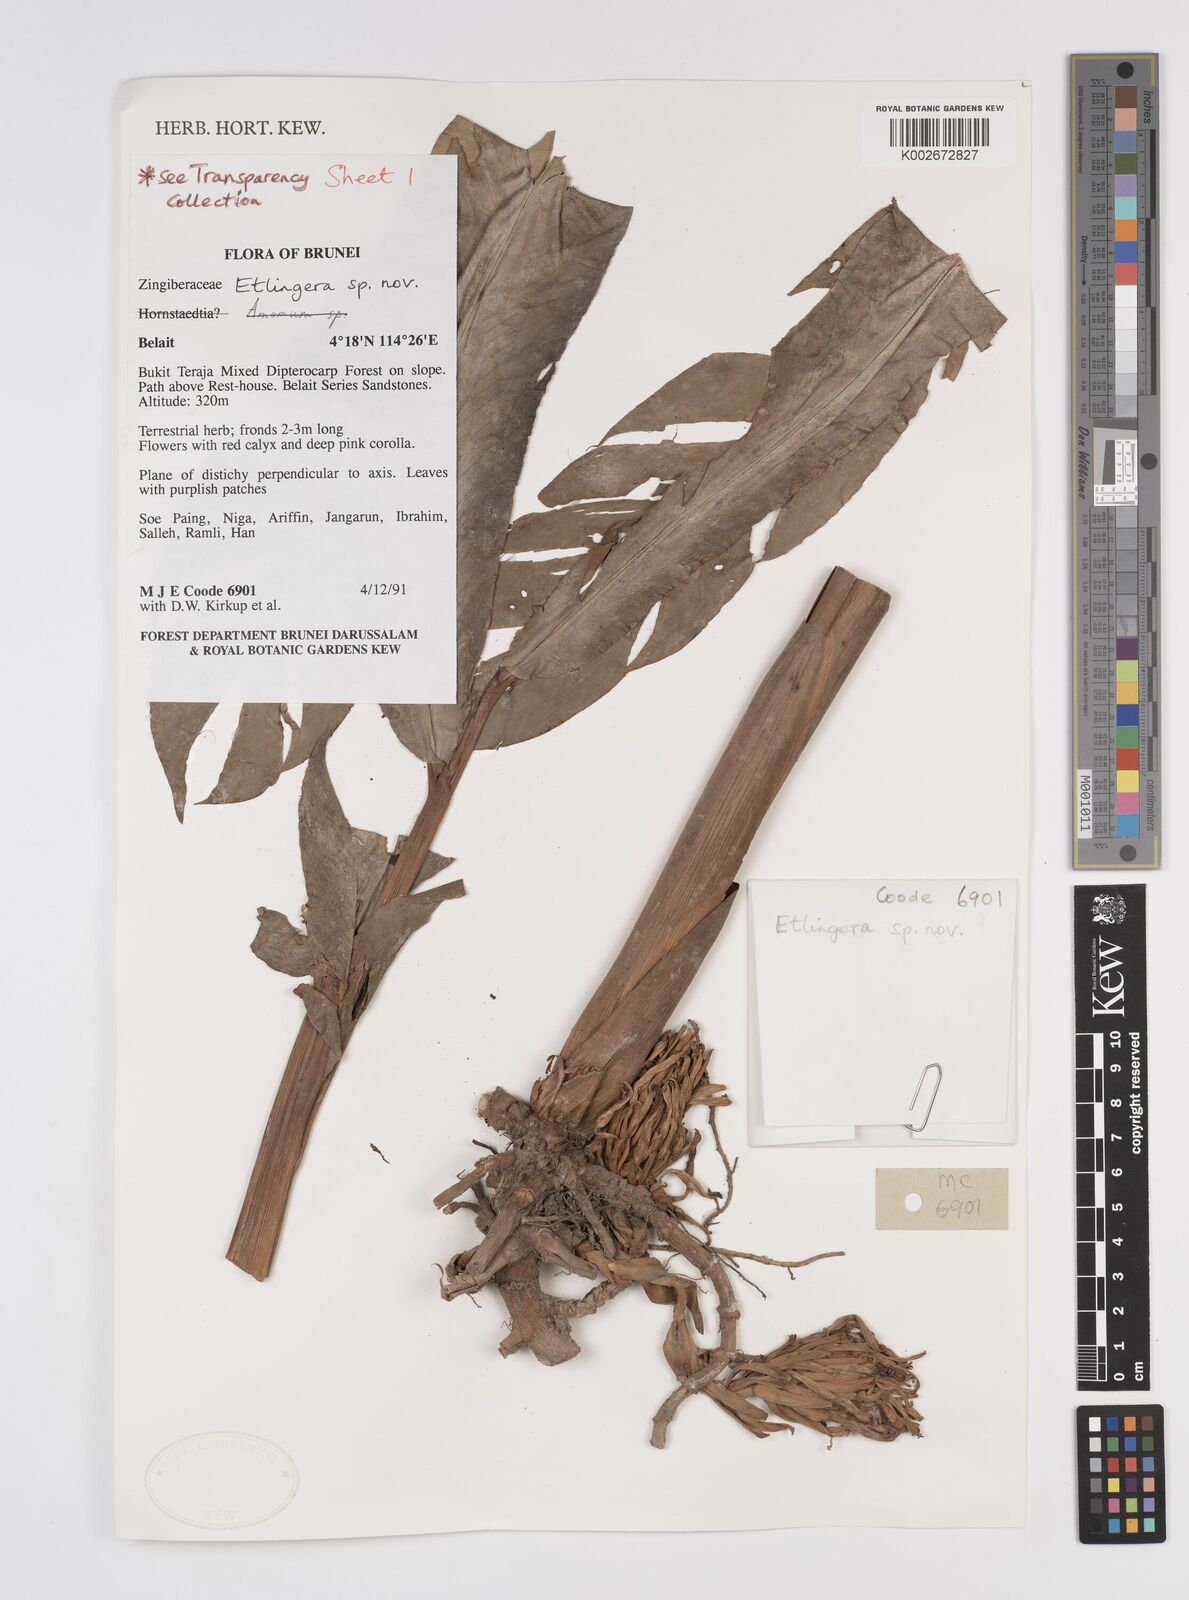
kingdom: Plantae
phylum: Tracheophyta
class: Liliopsida
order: Zingiberales
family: Zingiberaceae
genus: Etlingera
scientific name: Etlingera
